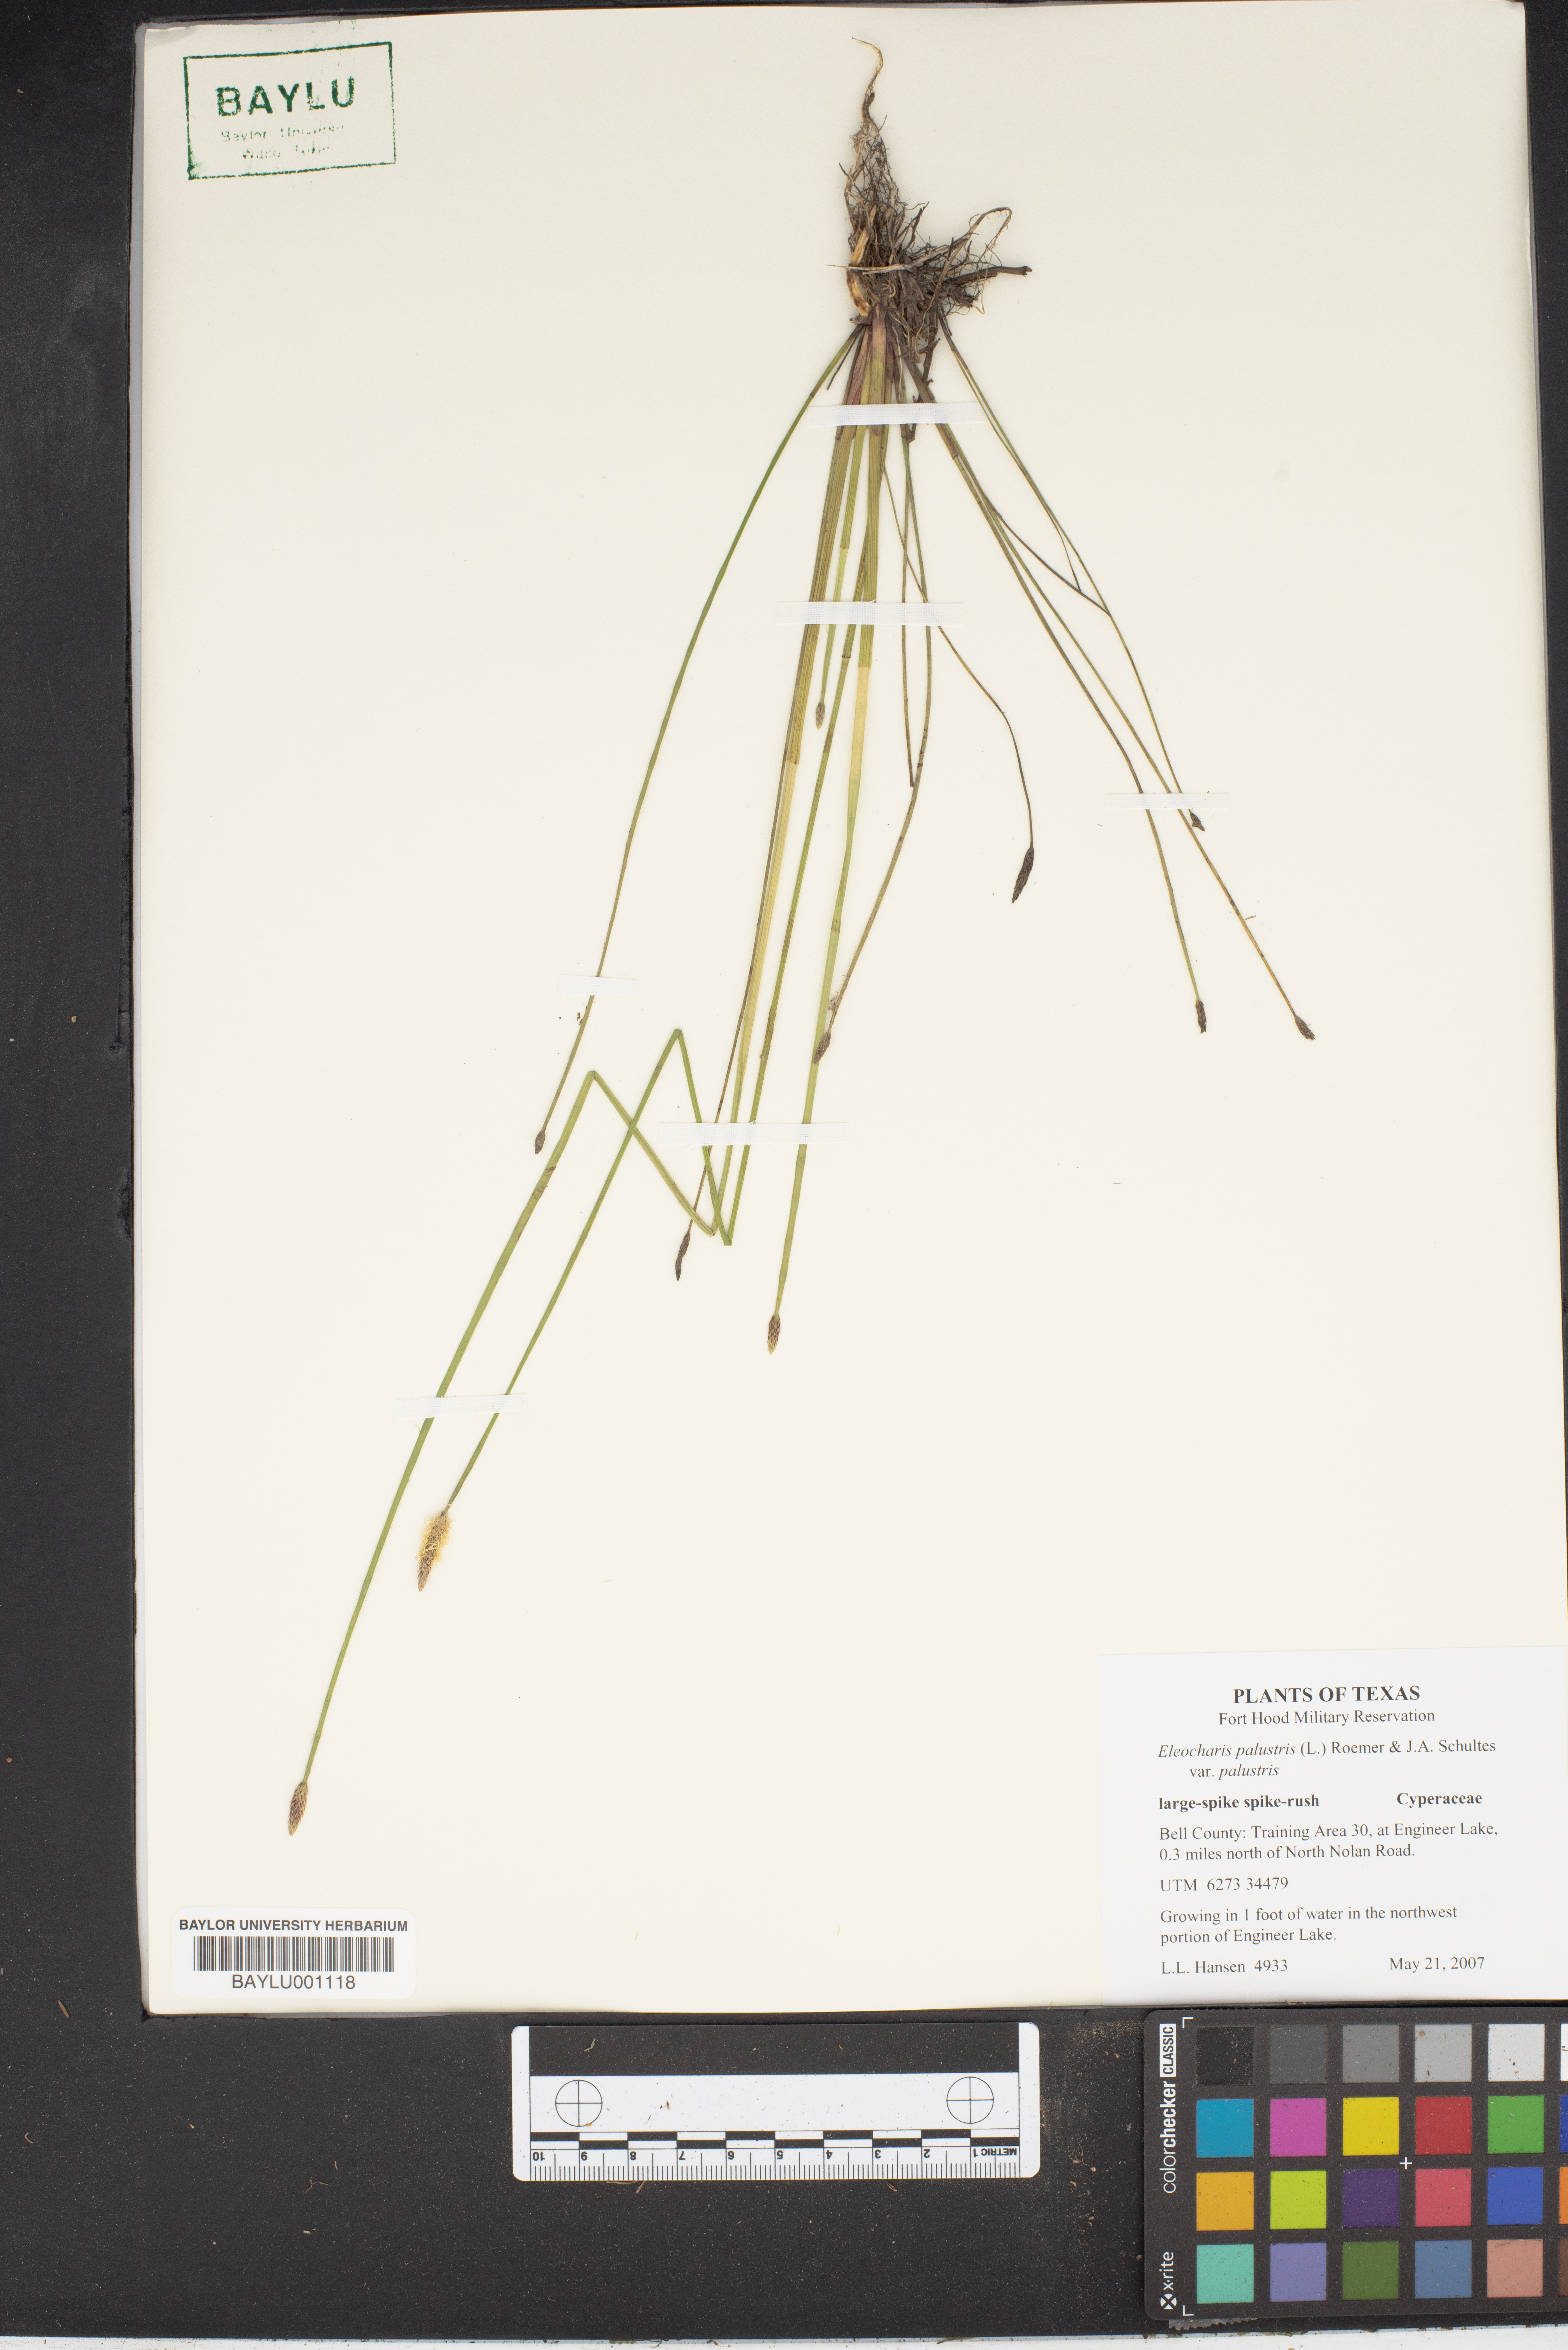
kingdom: Plantae
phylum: Tracheophyta
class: Liliopsida
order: Poales
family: Cyperaceae
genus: Eleocharis
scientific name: Eleocharis palustris
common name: Common spike-rush
